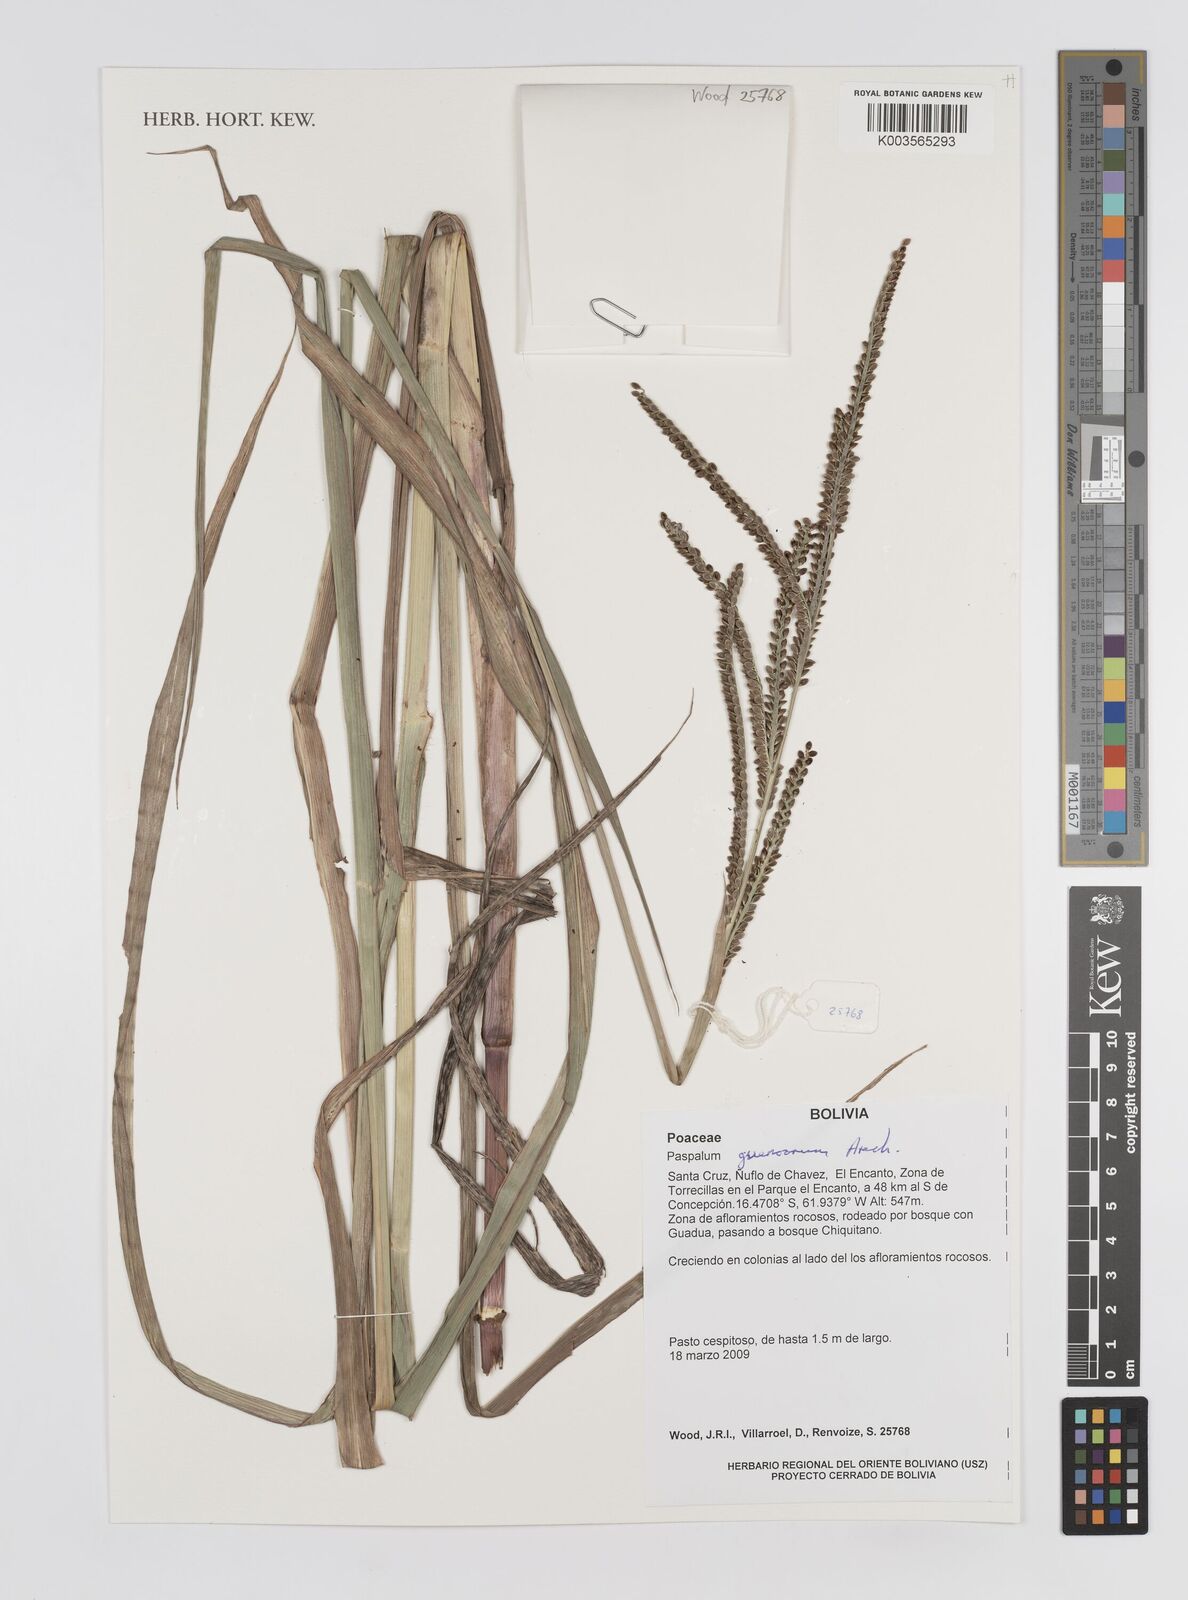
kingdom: Plantae
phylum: Tracheophyta
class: Liliopsida
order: Poales
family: Poaceae
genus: Paspalum
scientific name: Paspalum guenoarum
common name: Wintergreen paspalum
